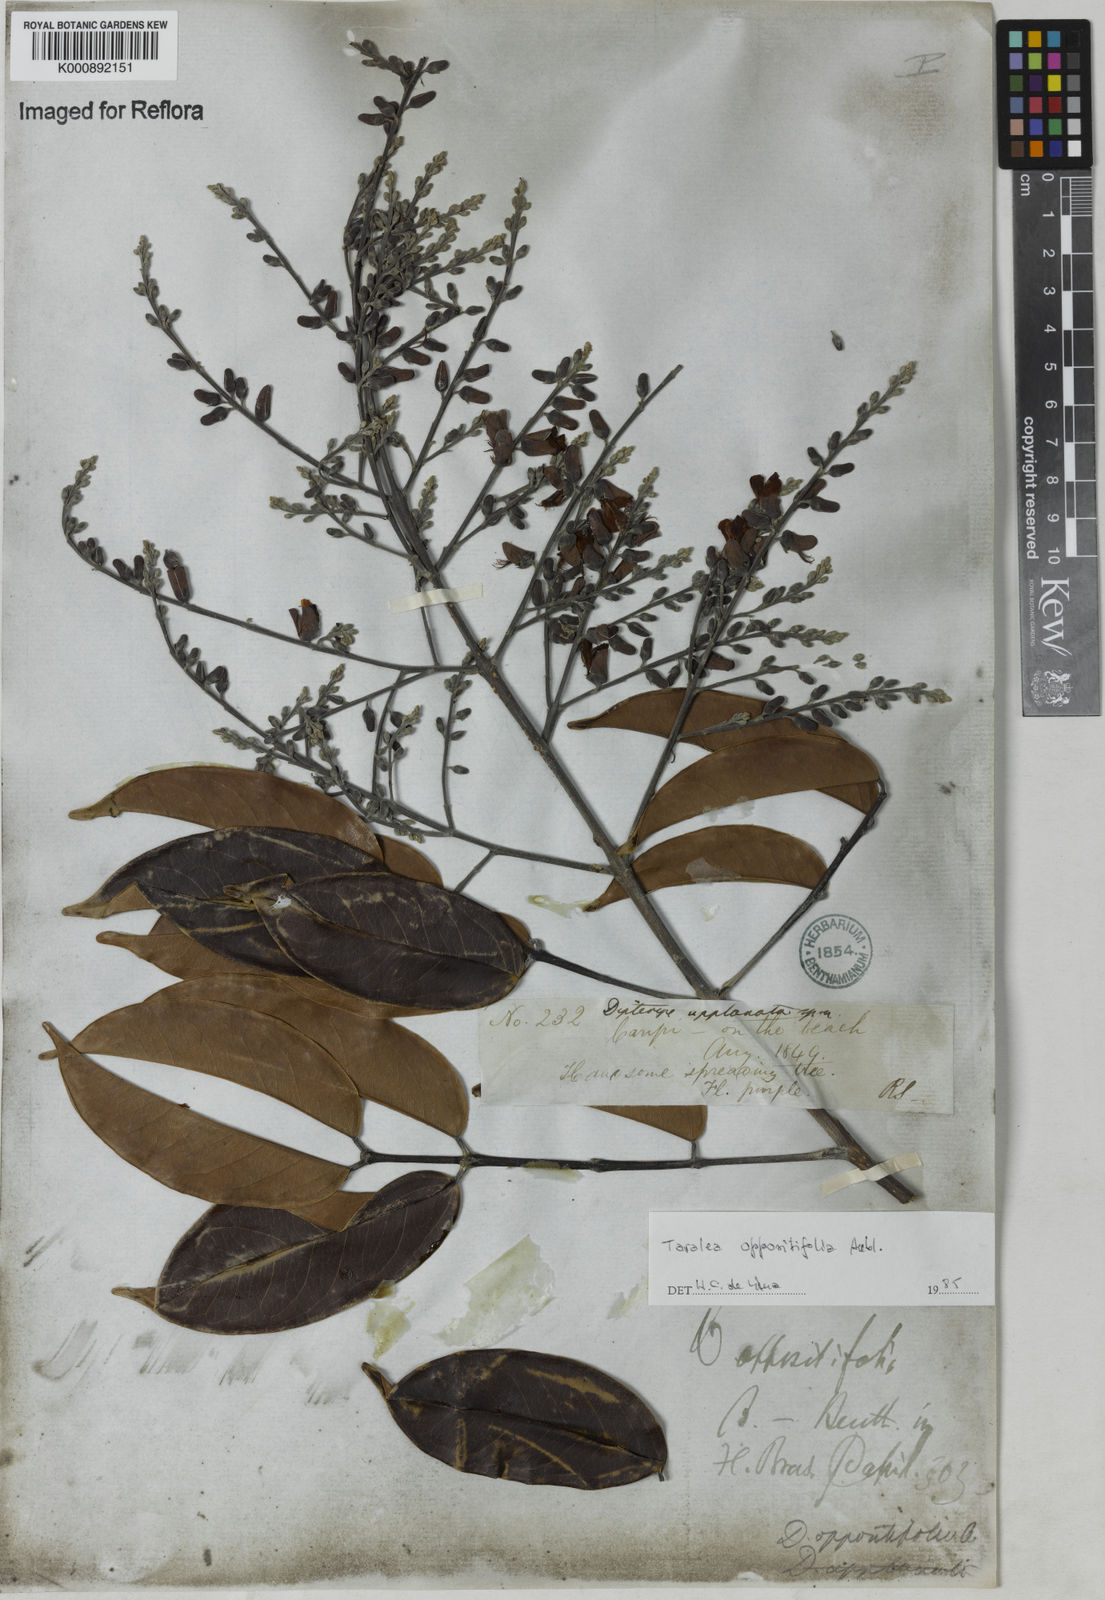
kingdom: Plantae
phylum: Tracheophyta
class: Magnoliopsida
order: Fabales
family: Fabaceae
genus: Taralea
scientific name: Taralea oppositifolia
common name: Tonka
